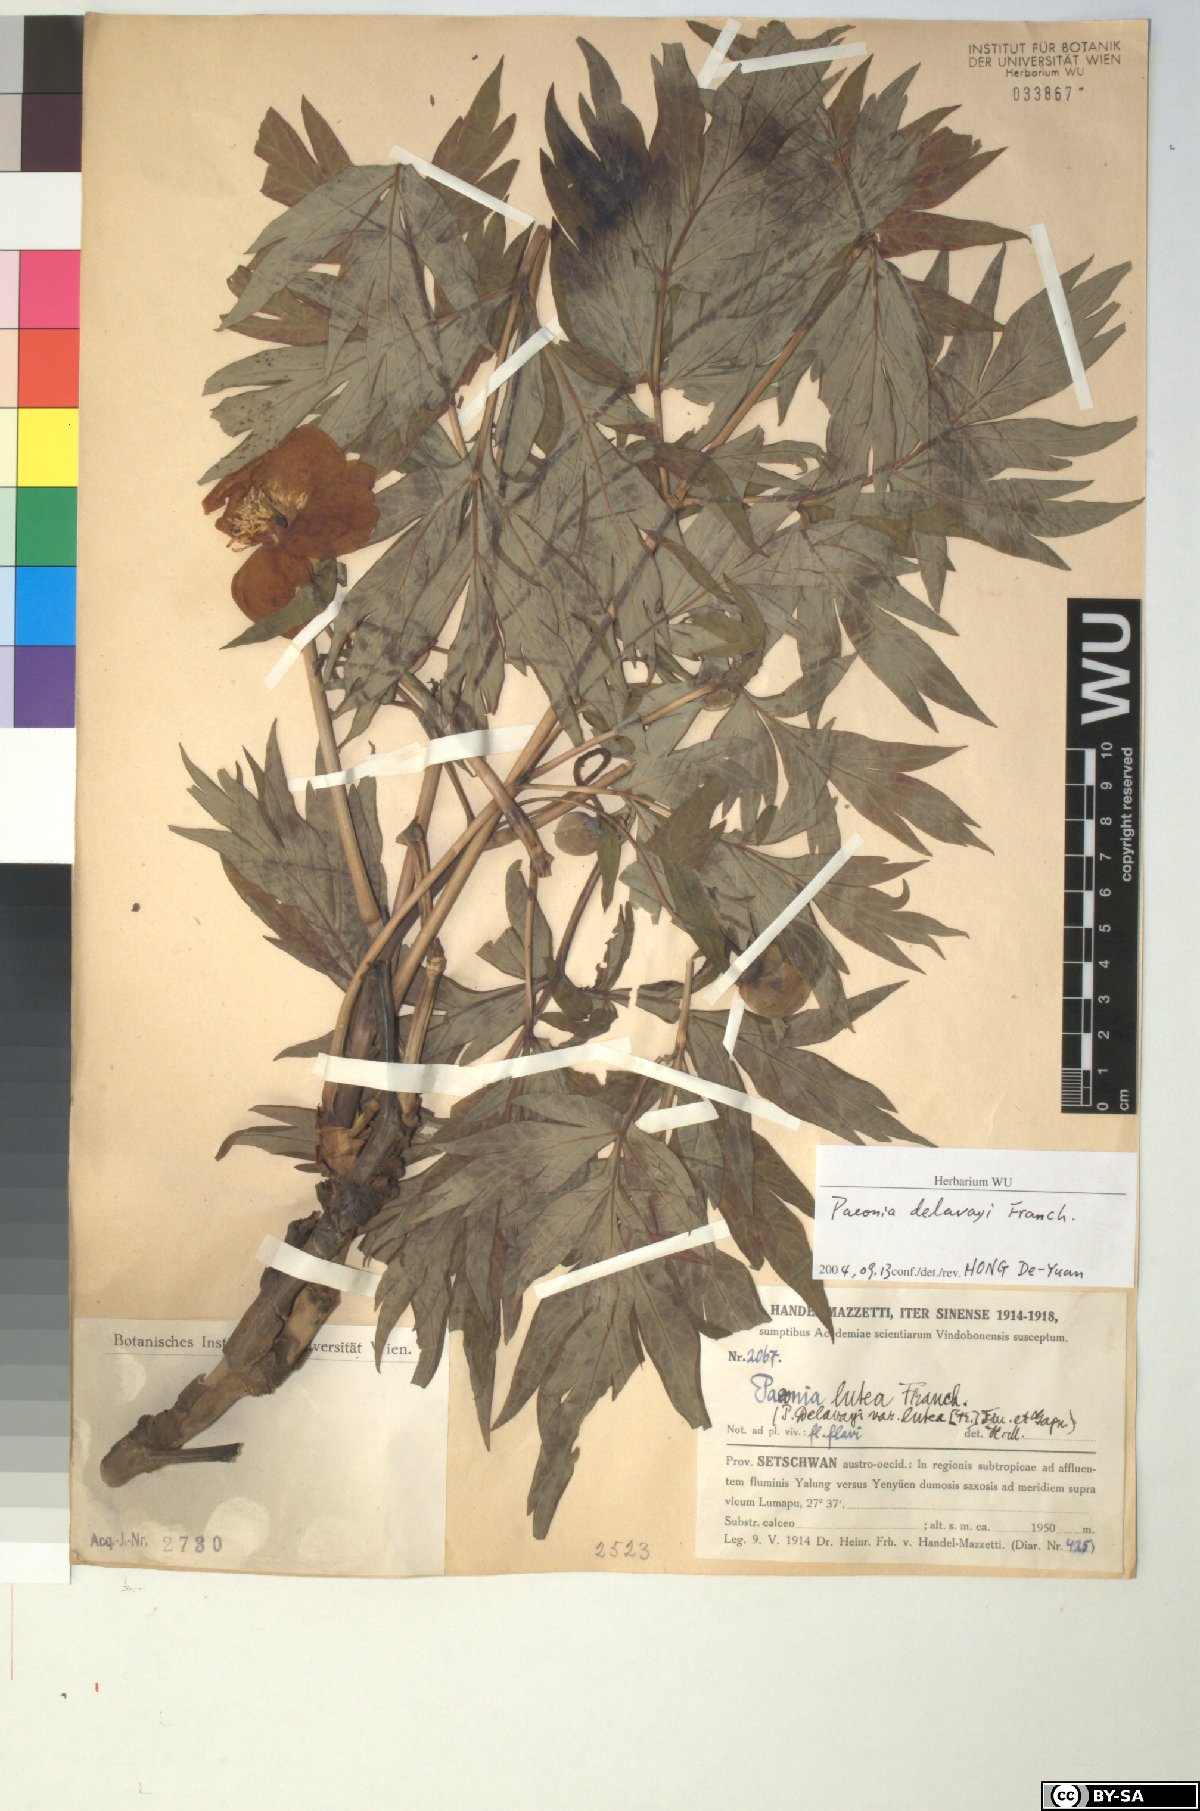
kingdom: Plantae
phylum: Tracheophyta
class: Magnoliopsida
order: Saxifragales
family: Paeoniaceae
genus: Paeonia
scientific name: Paeonia delavayi
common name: Dian mu dan
